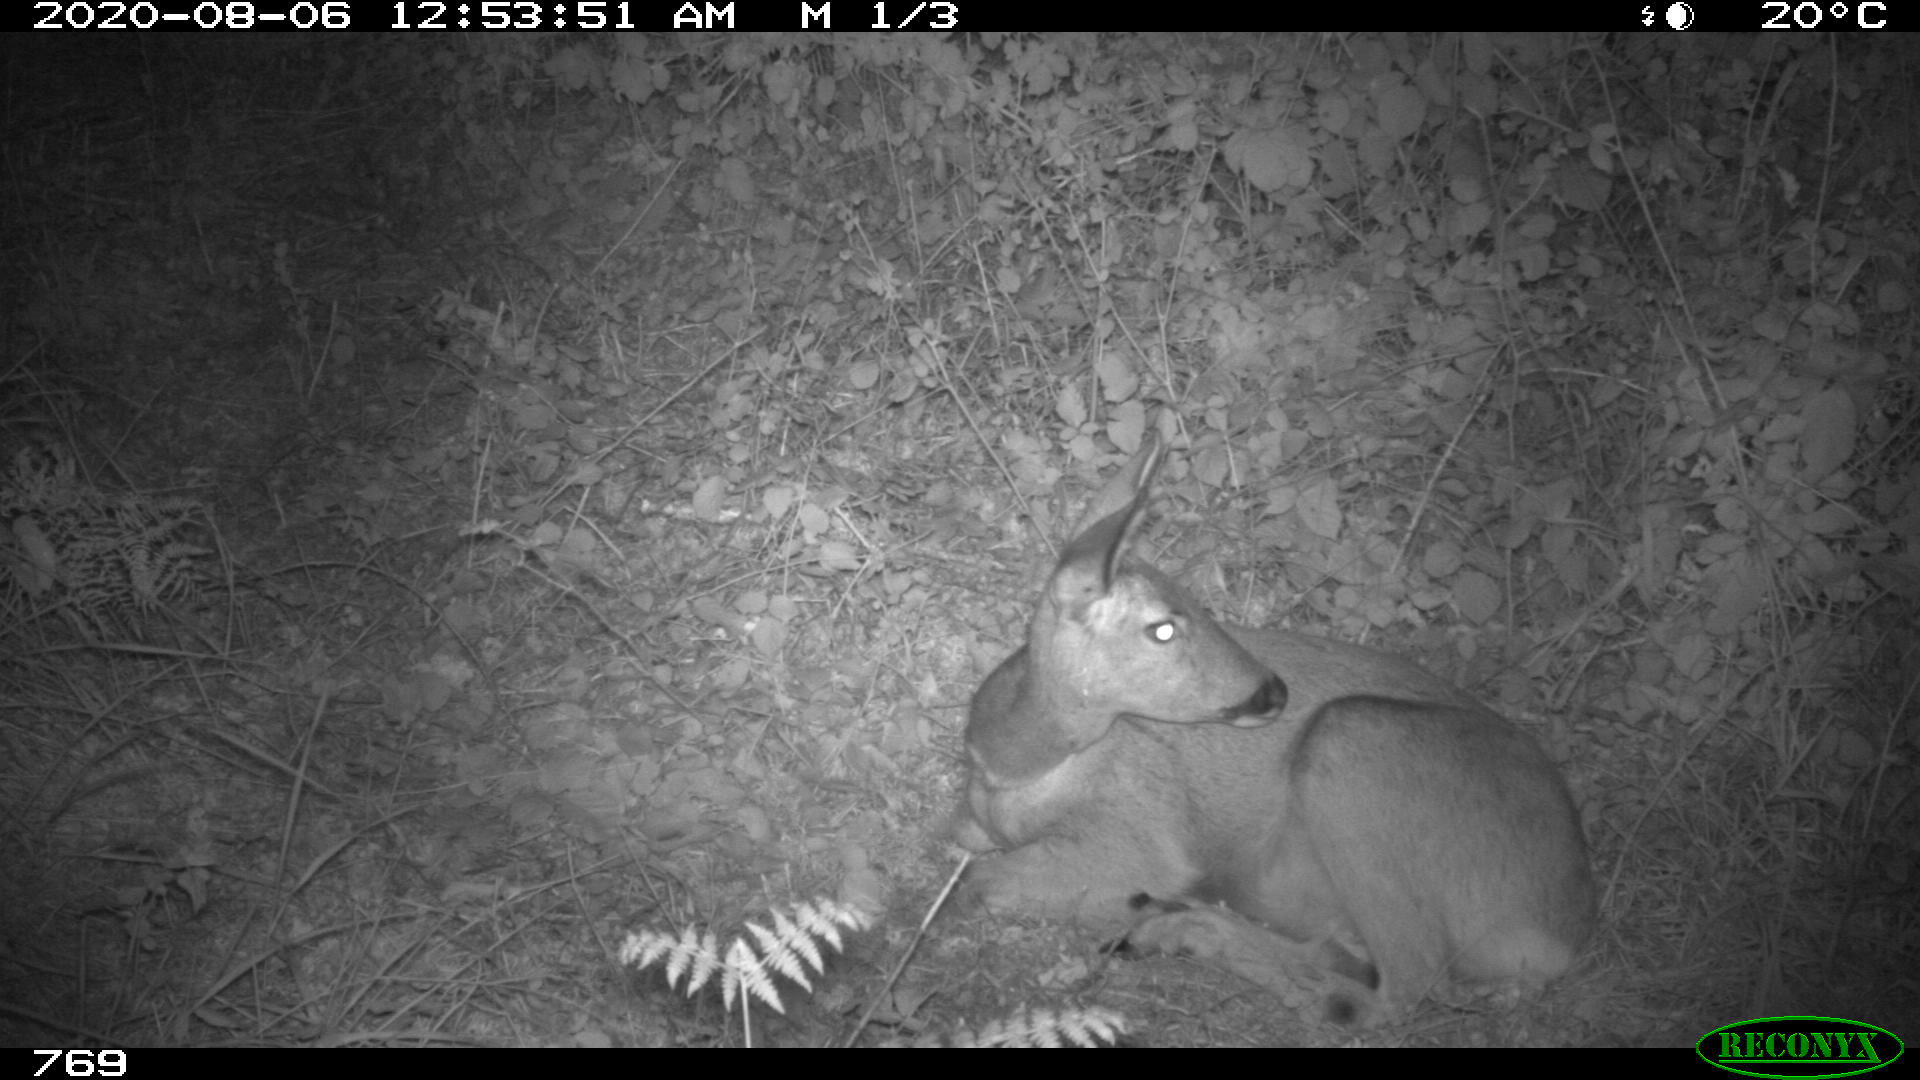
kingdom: Animalia
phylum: Chordata
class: Mammalia
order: Artiodactyla
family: Cervidae
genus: Capreolus
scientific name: Capreolus capreolus
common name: Western roe deer
